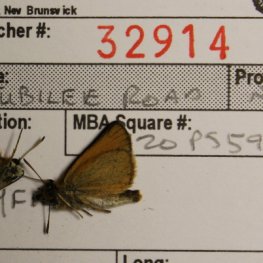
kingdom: Animalia
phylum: Arthropoda
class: Insecta
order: Lepidoptera
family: Hesperiidae
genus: Thymelicus
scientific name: Thymelicus lineola
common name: European Skipper
